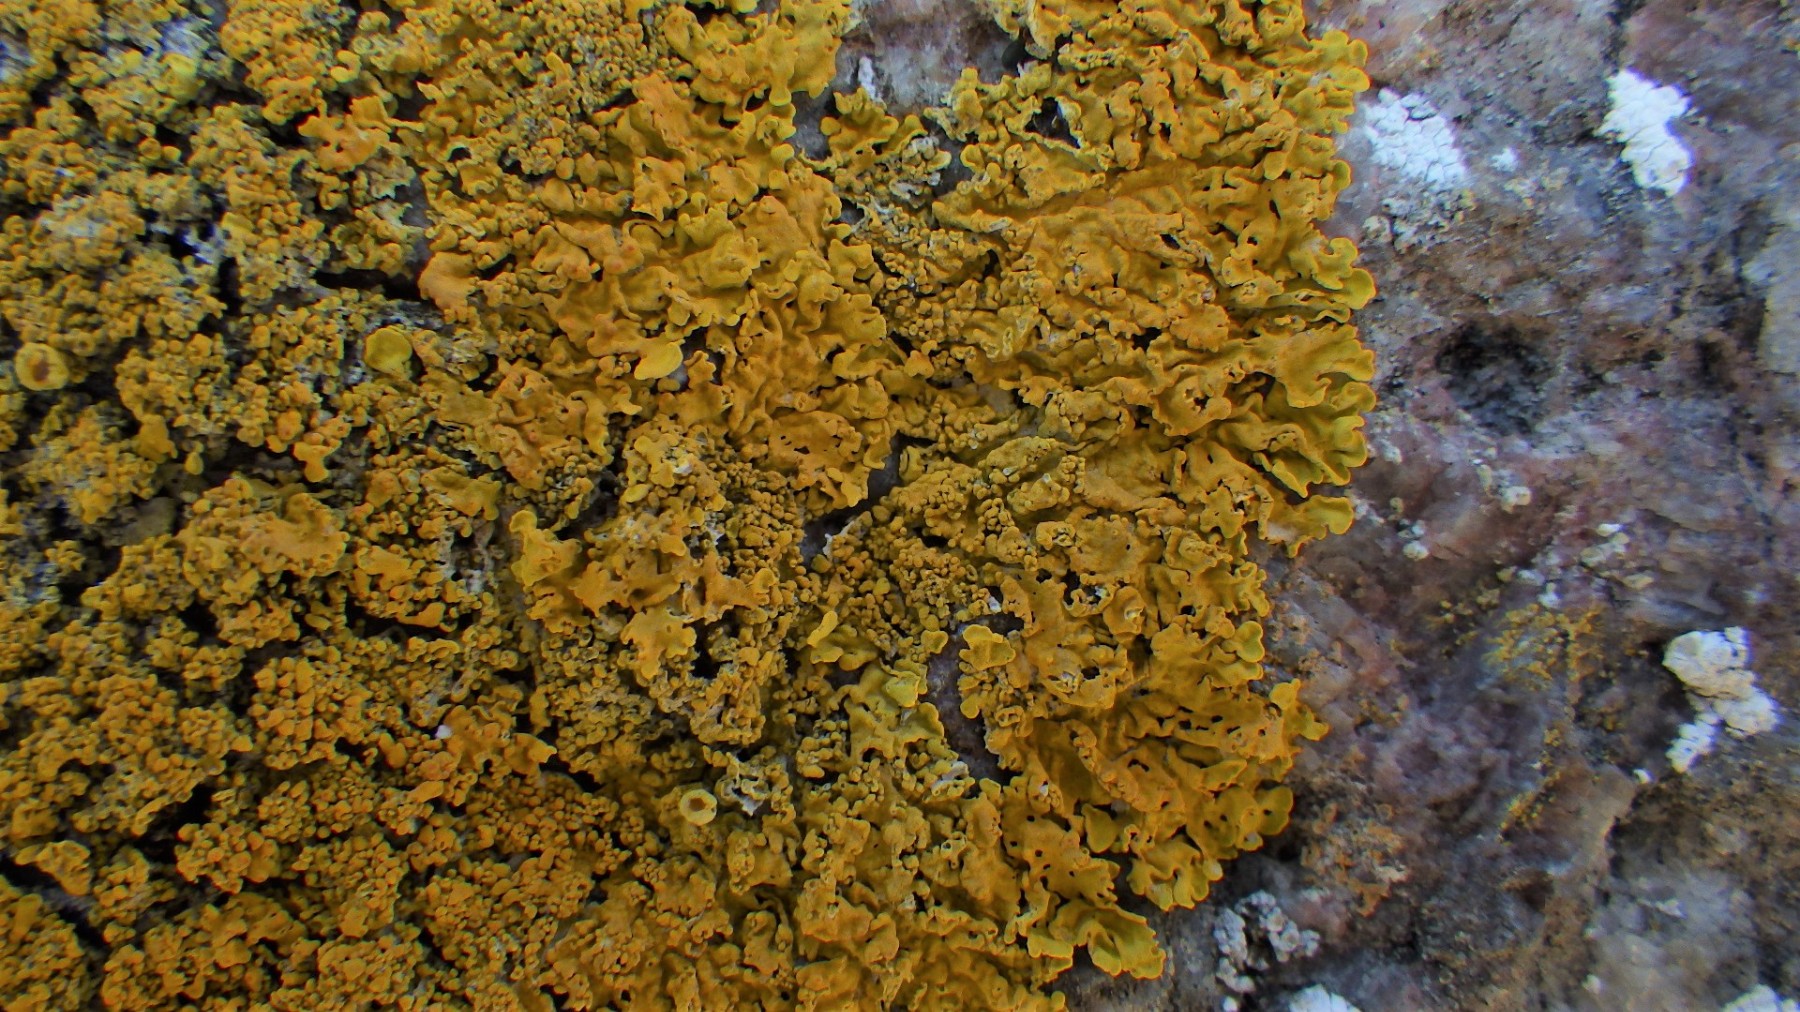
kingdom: Fungi
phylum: Ascomycota
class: Lecanoromycetes
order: Teloschistales
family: Teloschistaceae
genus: Xanthoria
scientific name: Xanthoria calcicola
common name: vortet væggelav
